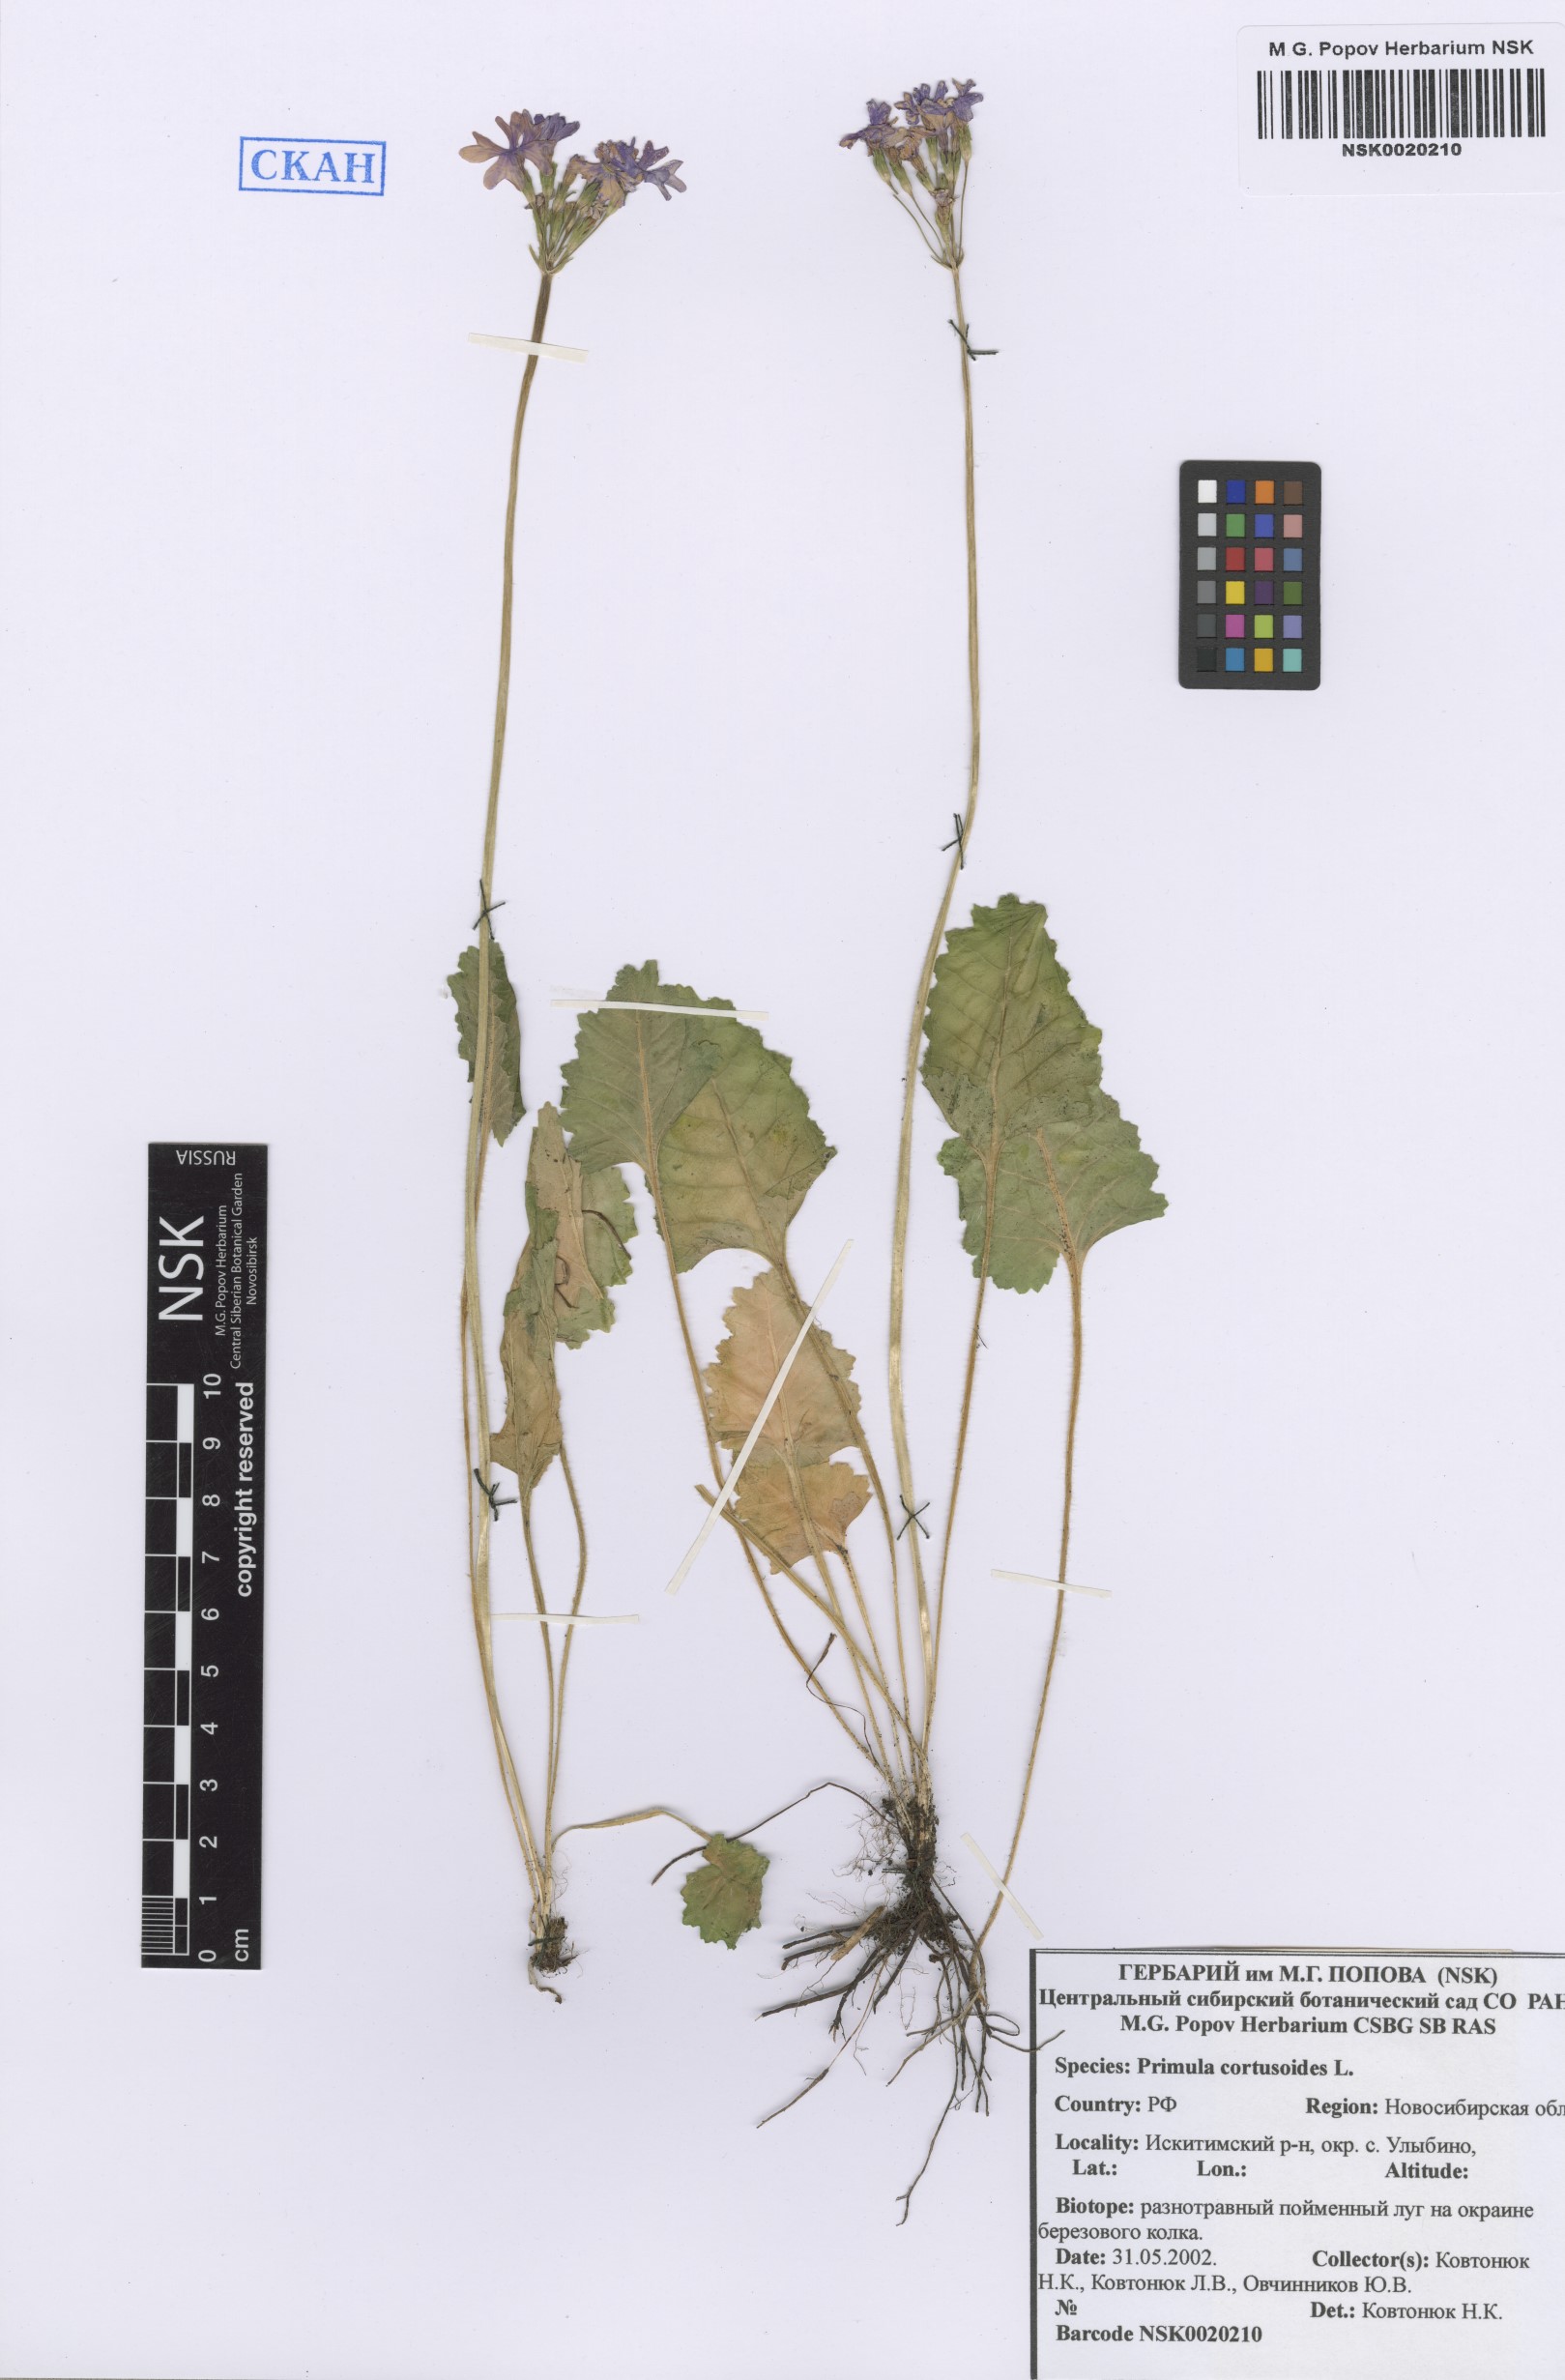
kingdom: Plantae
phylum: Tracheophyta
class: Magnoliopsida
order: Ericales
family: Primulaceae
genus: Primula
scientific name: Primula cortusoides
